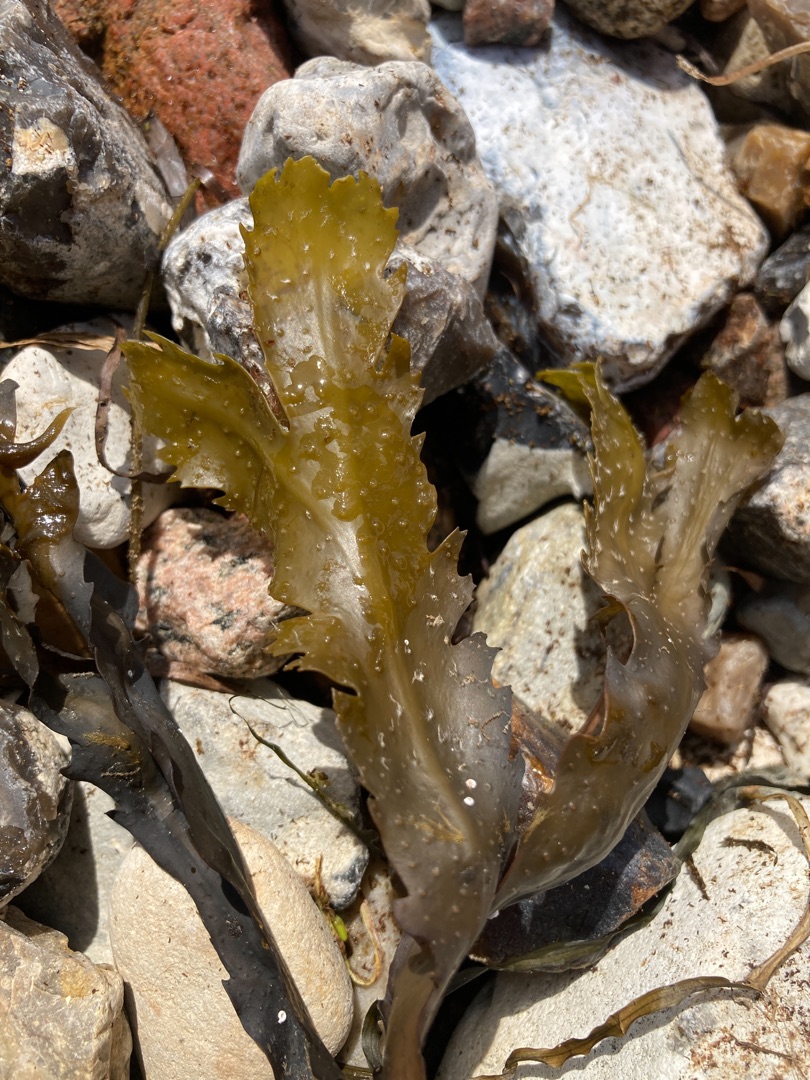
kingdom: Chromista
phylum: Ochrophyta
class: Phaeophyceae
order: Fucales
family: Fucaceae
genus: Fucus
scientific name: Fucus serratus
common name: Savtang
